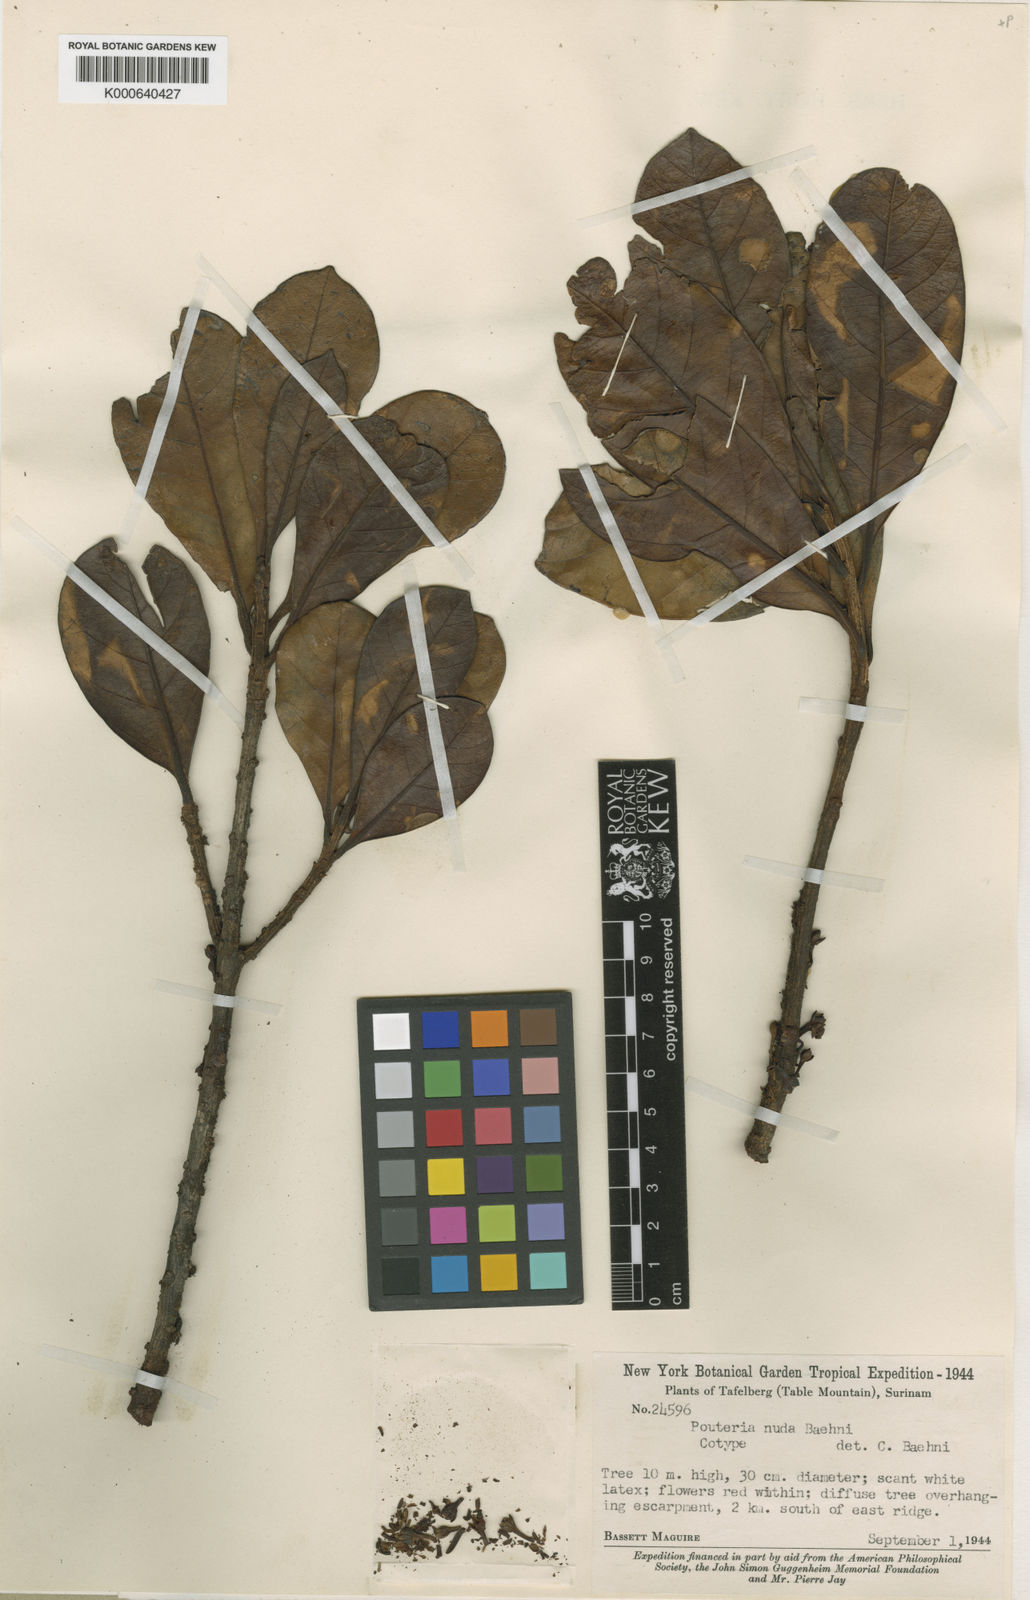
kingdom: Plantae
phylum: Tracheophyta
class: Magnoliopsida
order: Ericales
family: Sapotaceae
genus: Elaeoluma
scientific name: Elaeoluma
